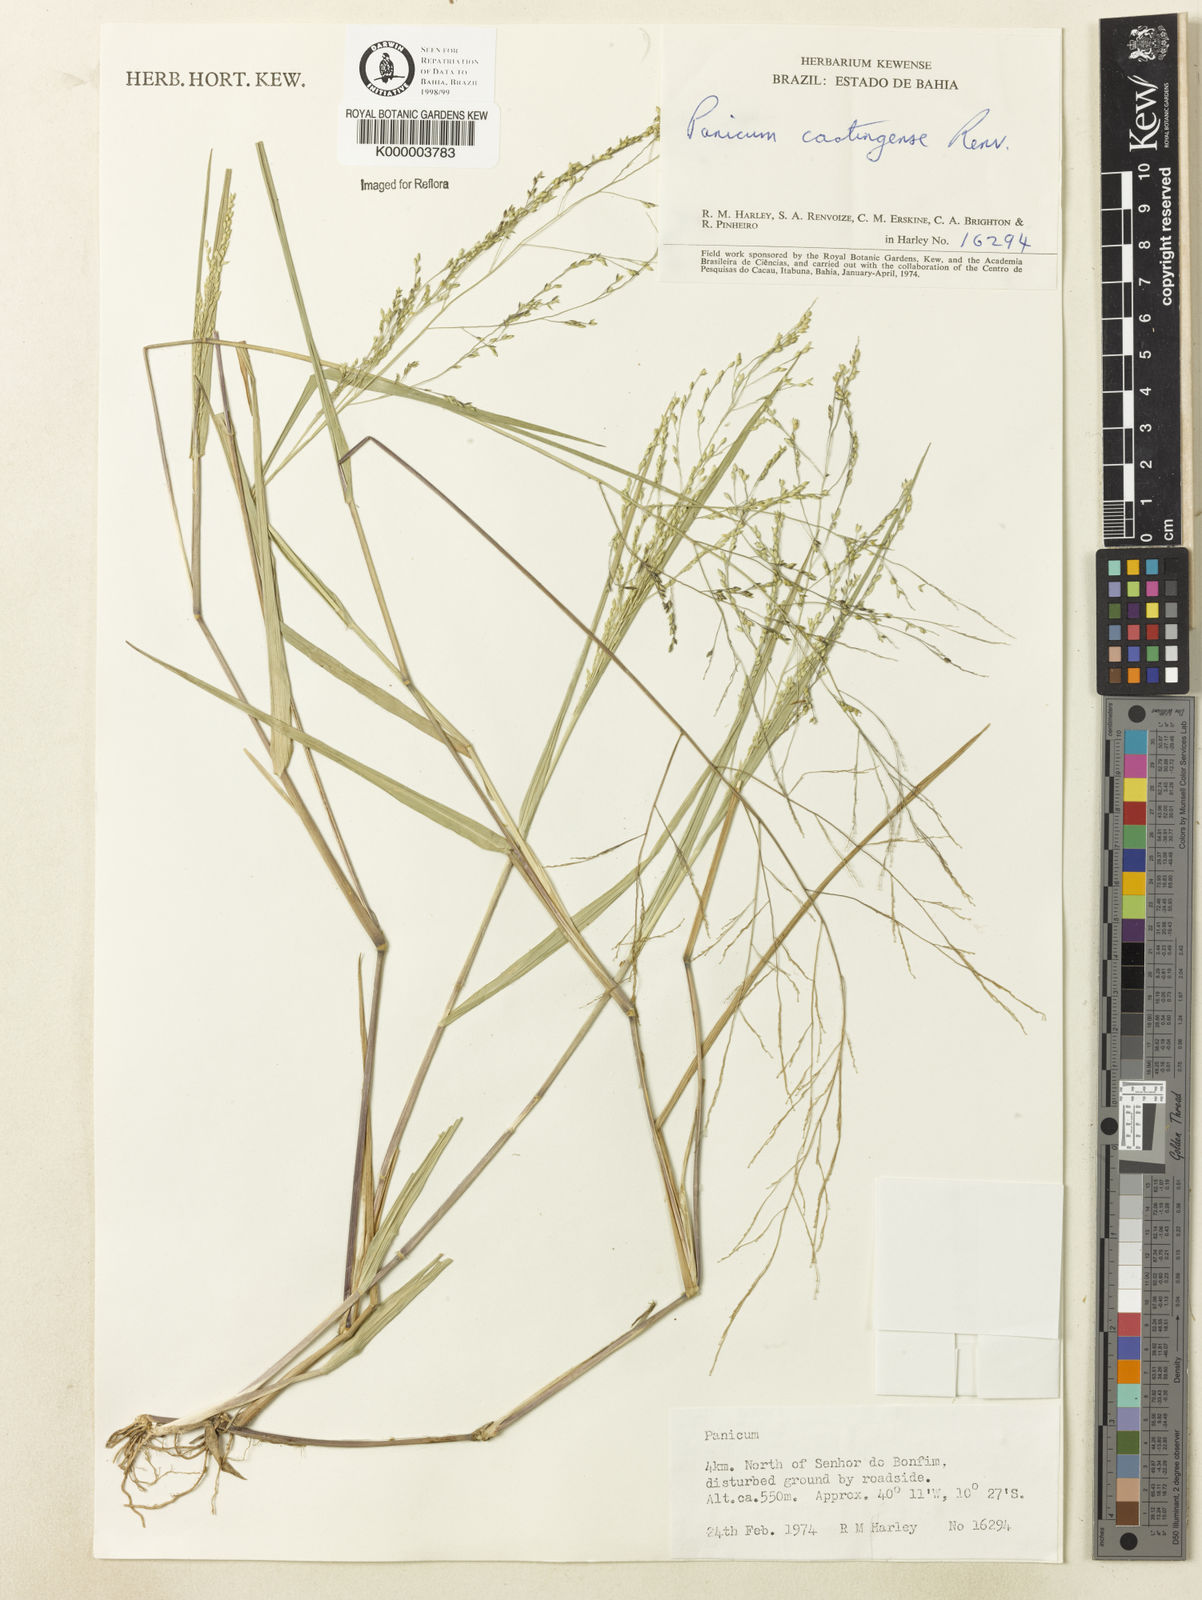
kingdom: Plantae
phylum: Tracheophyta
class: Liliopsida
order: Poales
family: Poaceae
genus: Panicum
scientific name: Panicum hirticaule
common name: Rough-stalk witchgrass
